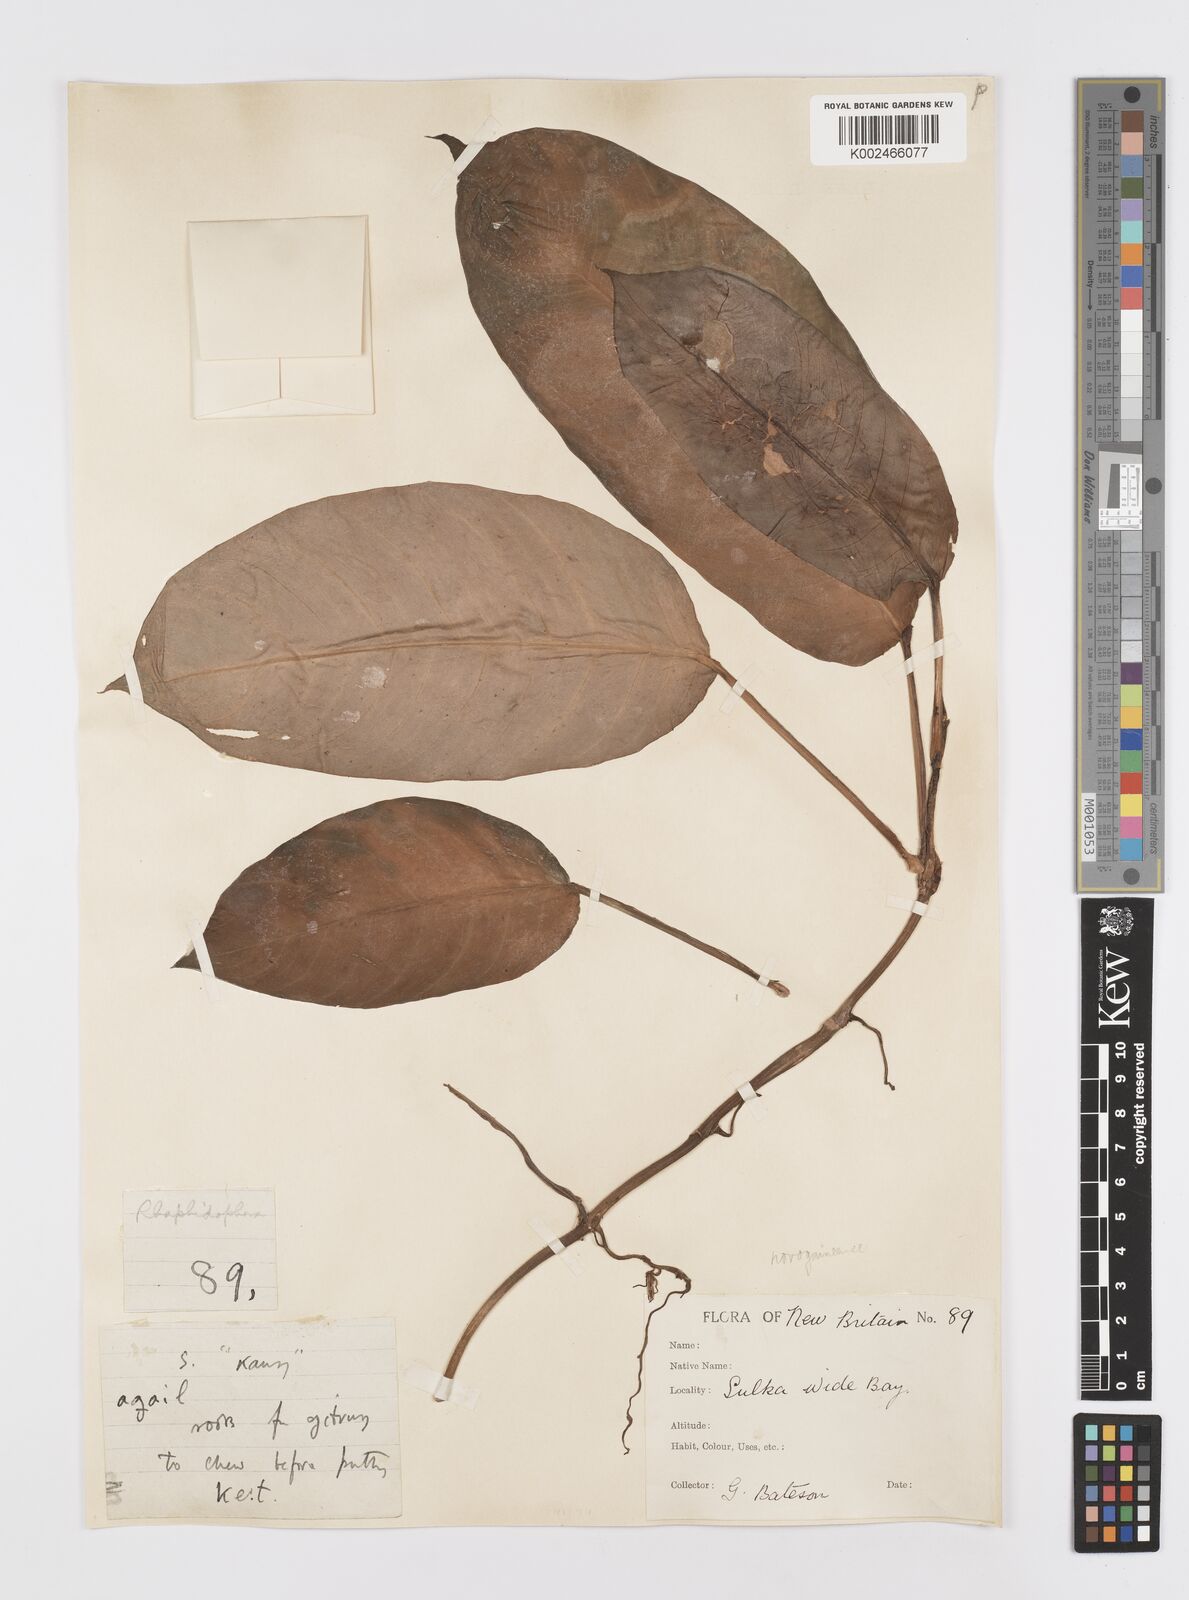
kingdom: Plantae
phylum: Tracheophyta
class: Liliopsida
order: Alismatales
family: Araceae
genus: Rhaphidophora
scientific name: Rhaphidophora mima
